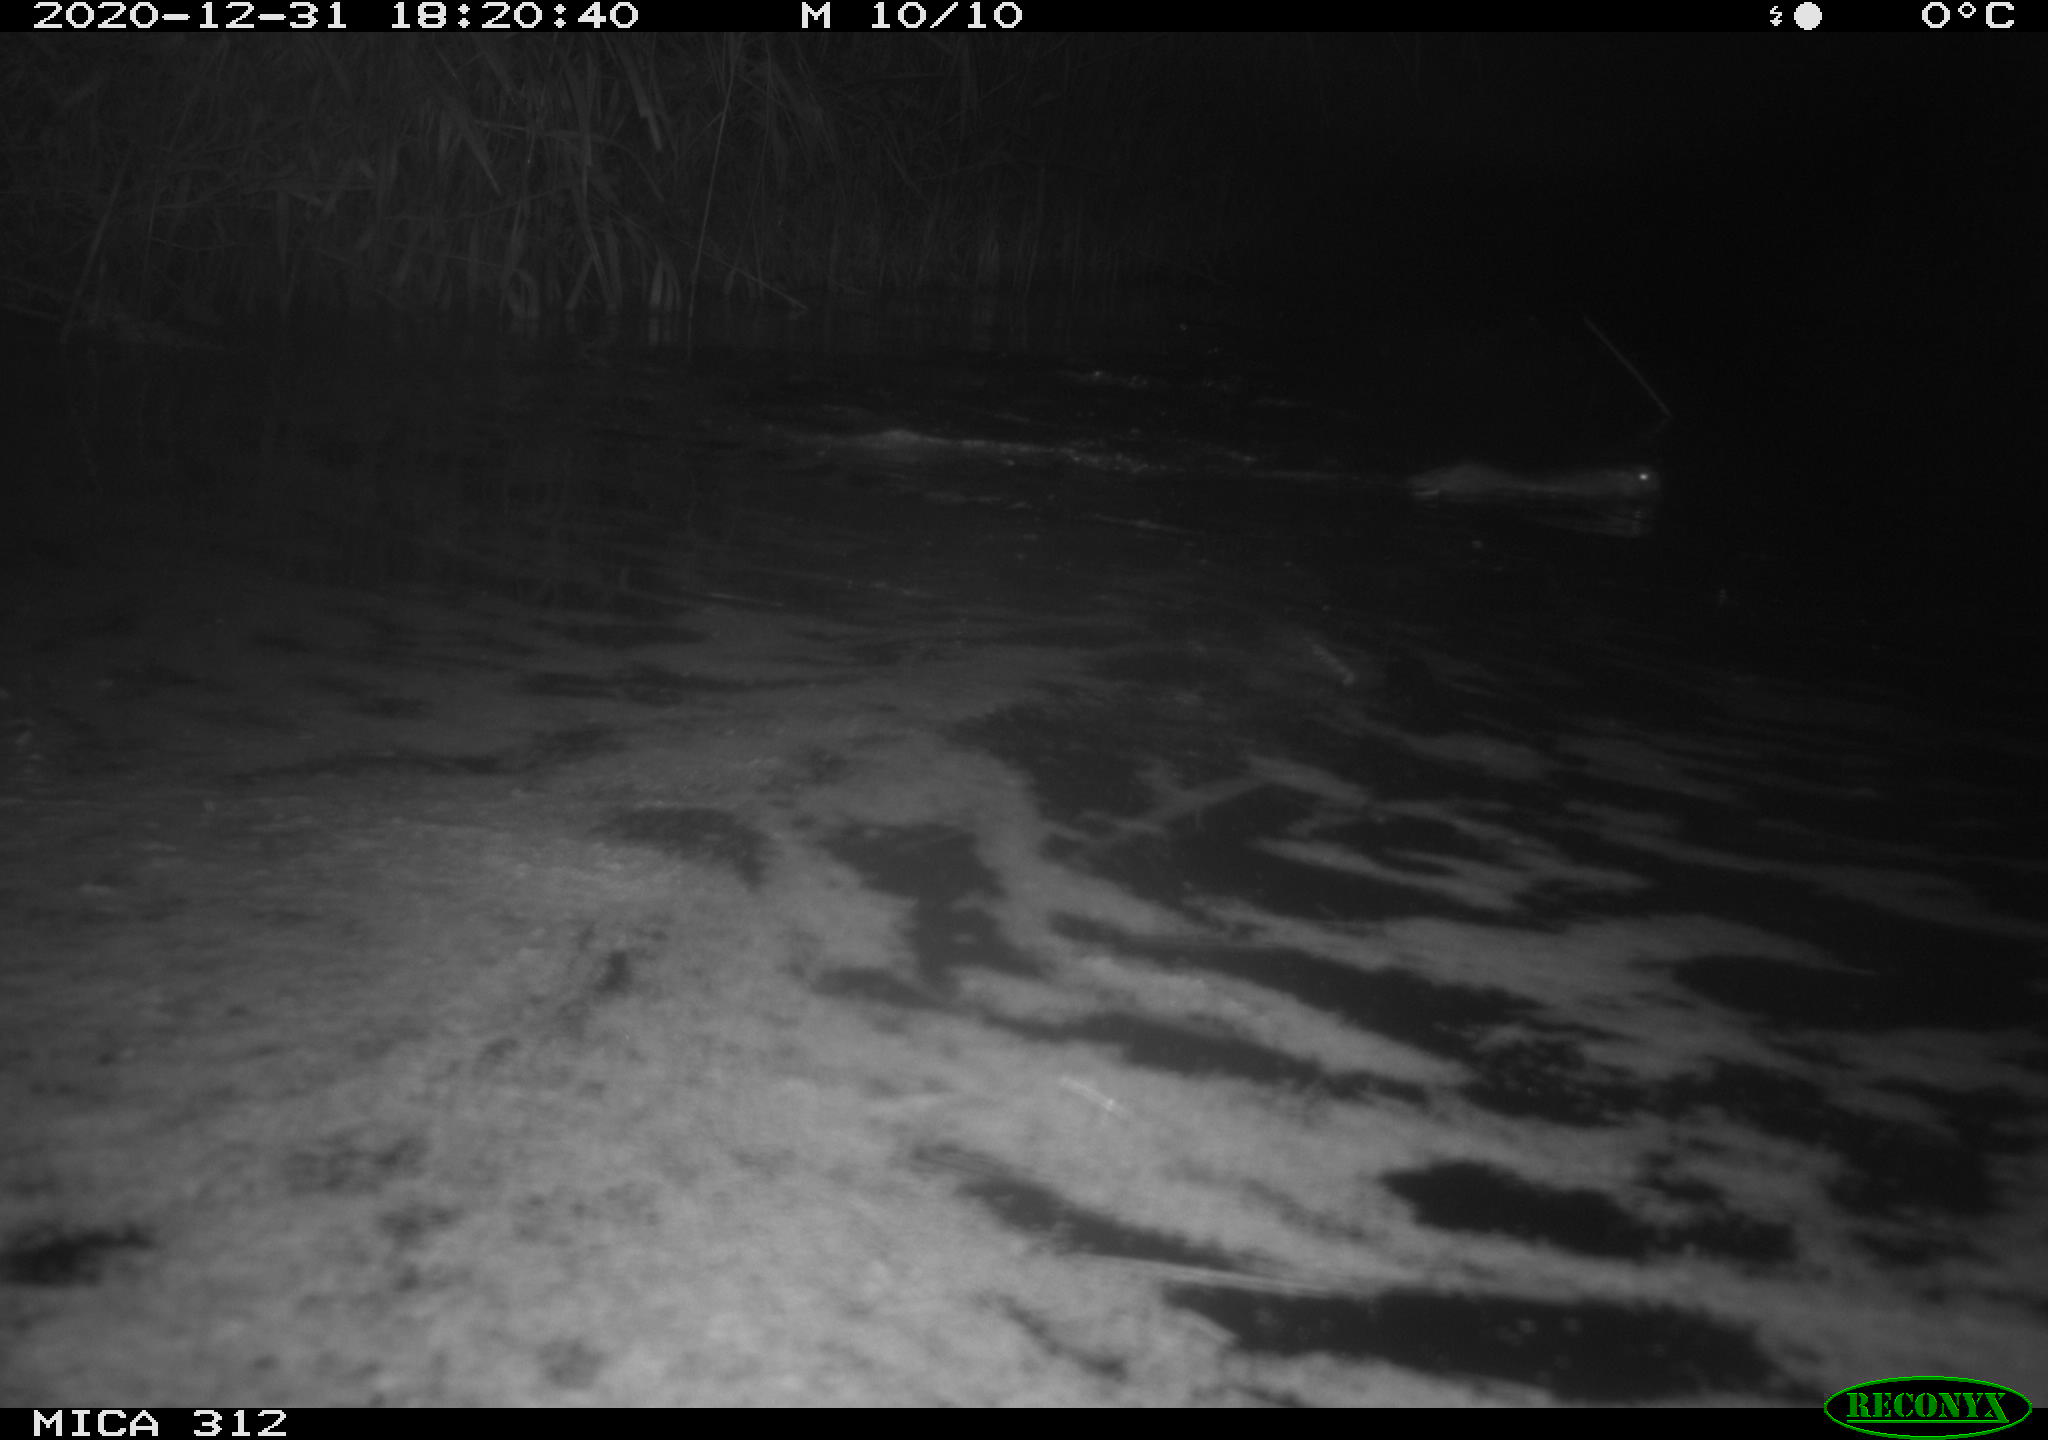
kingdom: Animalia
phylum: Chordata
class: Aves
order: Gruiformes
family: Rallidae
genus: Gallinula
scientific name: Gallinula chloropus
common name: Common moorhen
